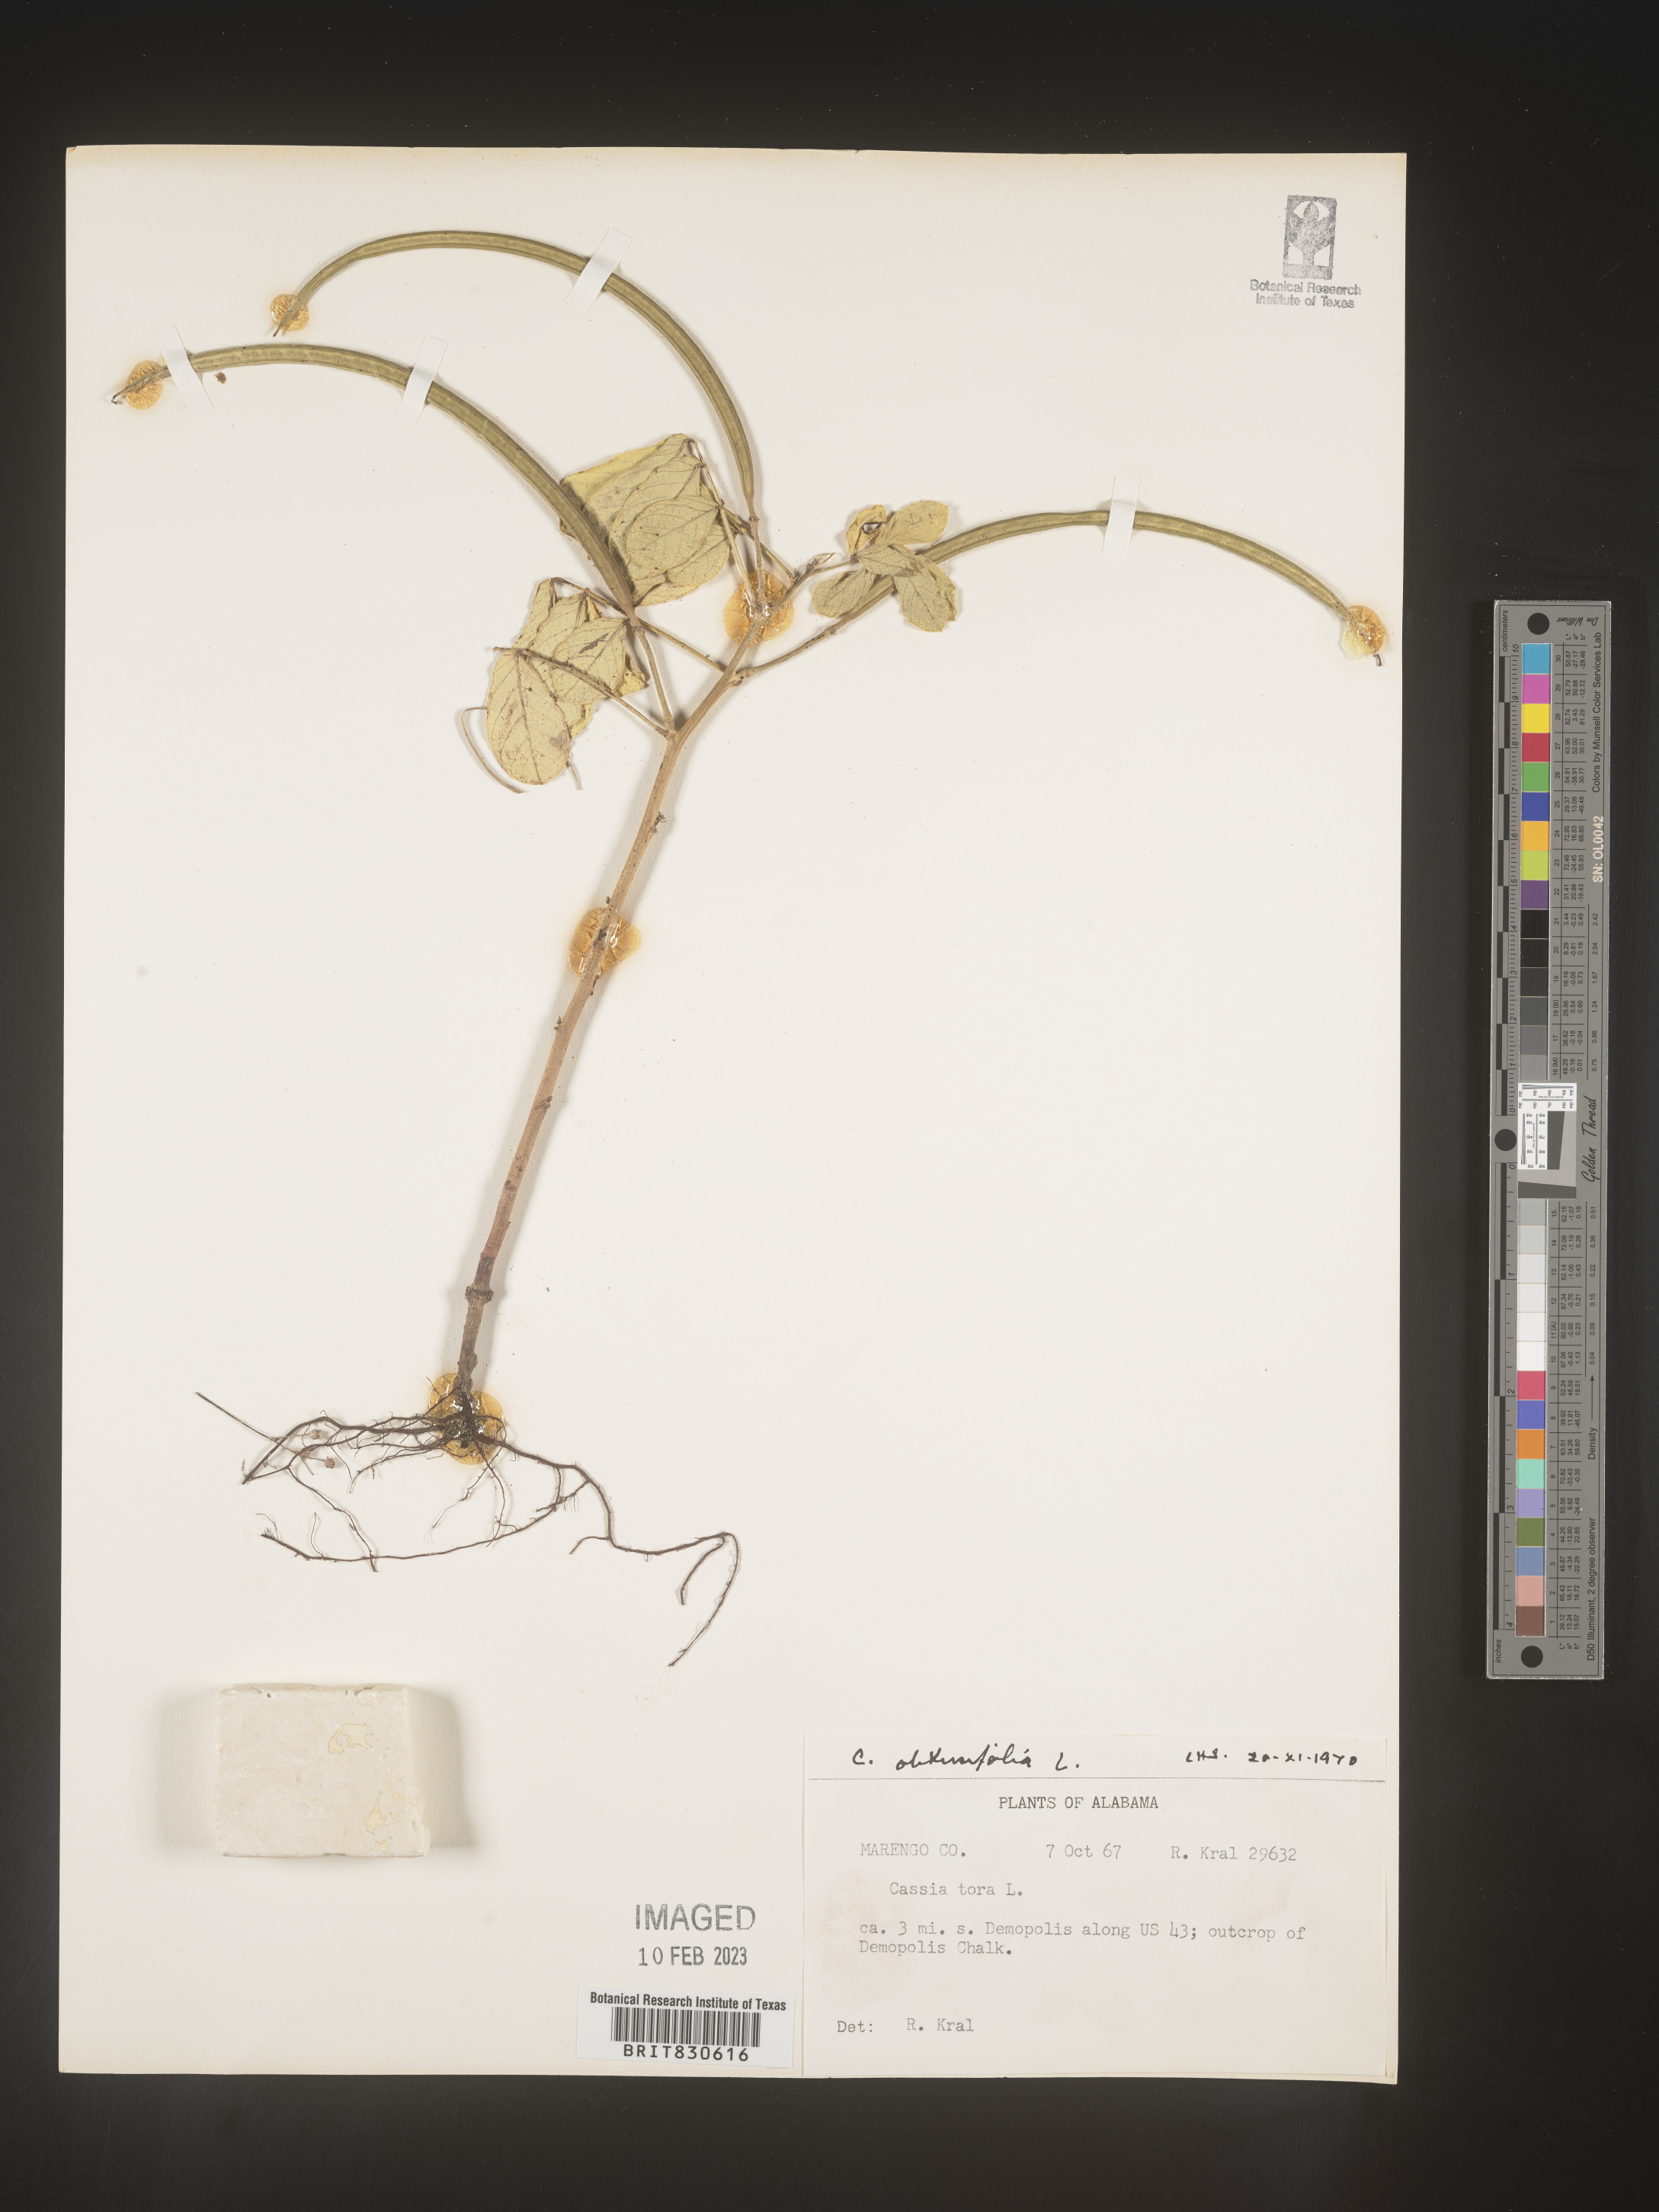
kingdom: Plantae
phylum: Tracheophyta
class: Magnoliopsida
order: Fabales
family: Fabaceae
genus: Senna
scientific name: Senna obtusifolia
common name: Java-bean
